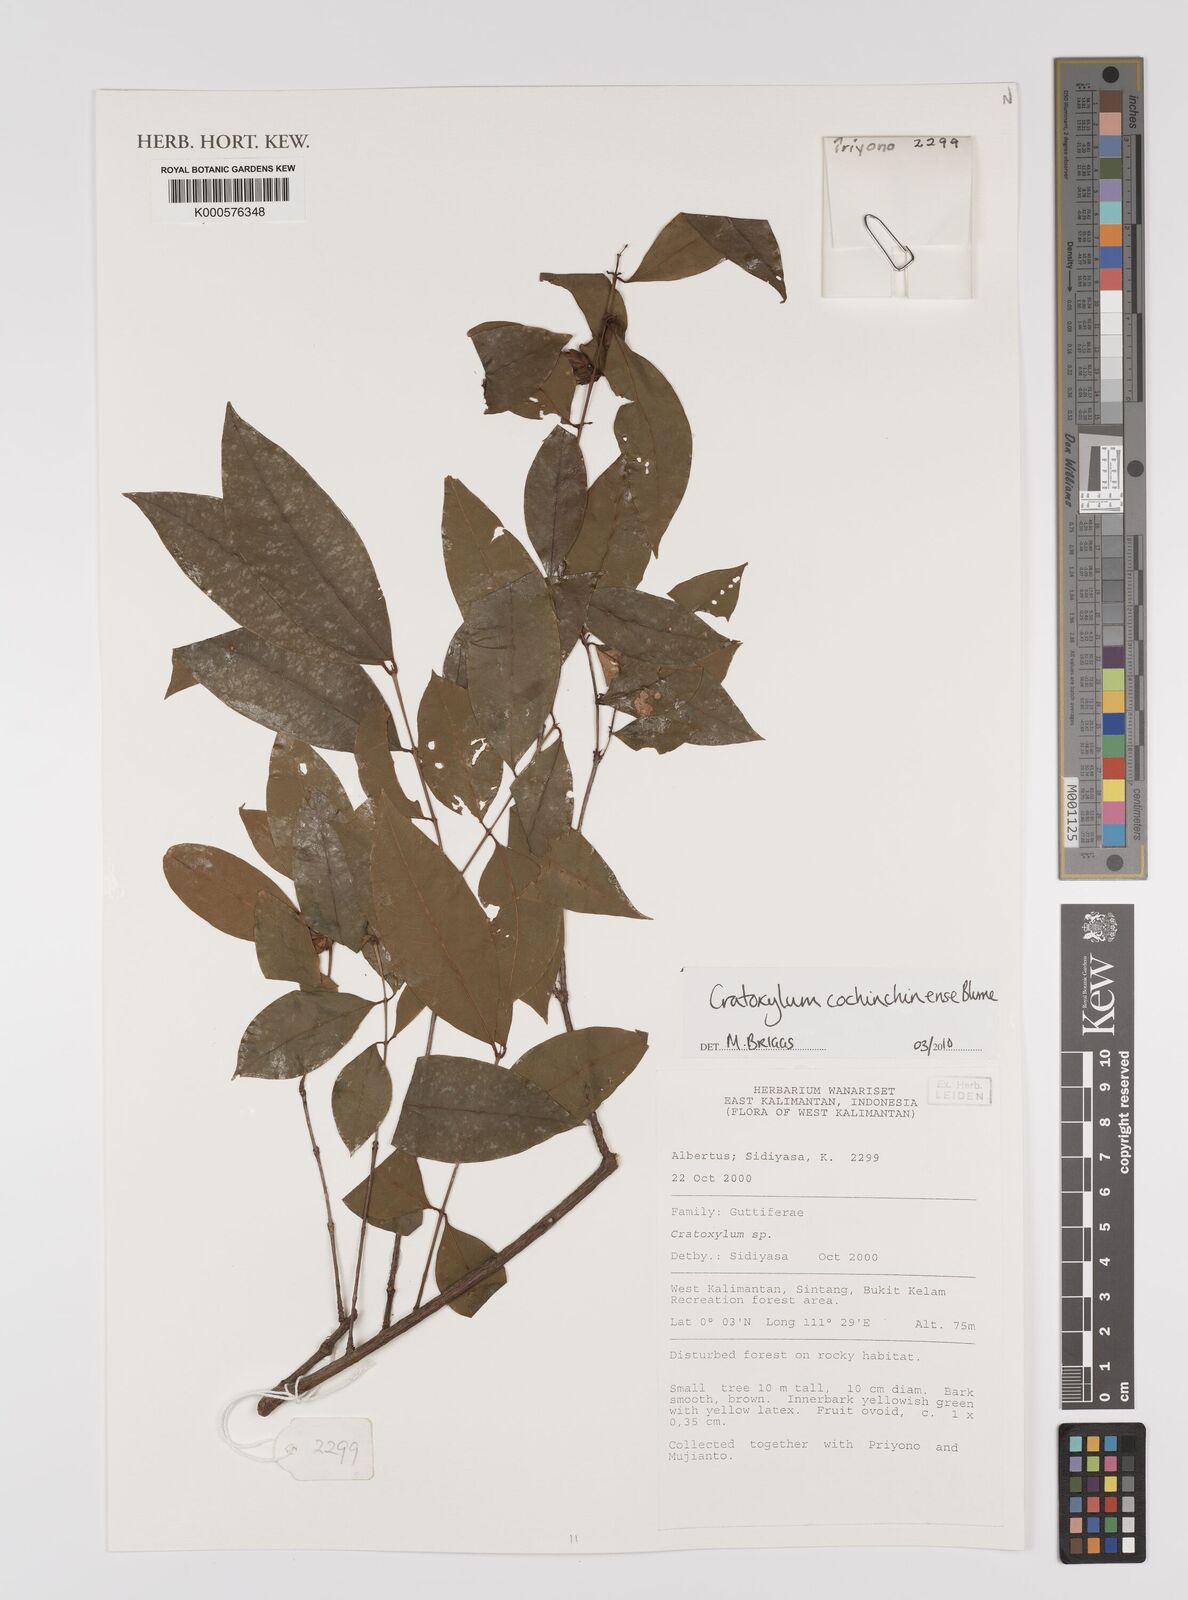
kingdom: Plantae
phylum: Tracheophyta
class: Magnoliopsida
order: Malpighiales
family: Hypericaceae
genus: Cratoxylum
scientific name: Cratoxylum cochinchinense
